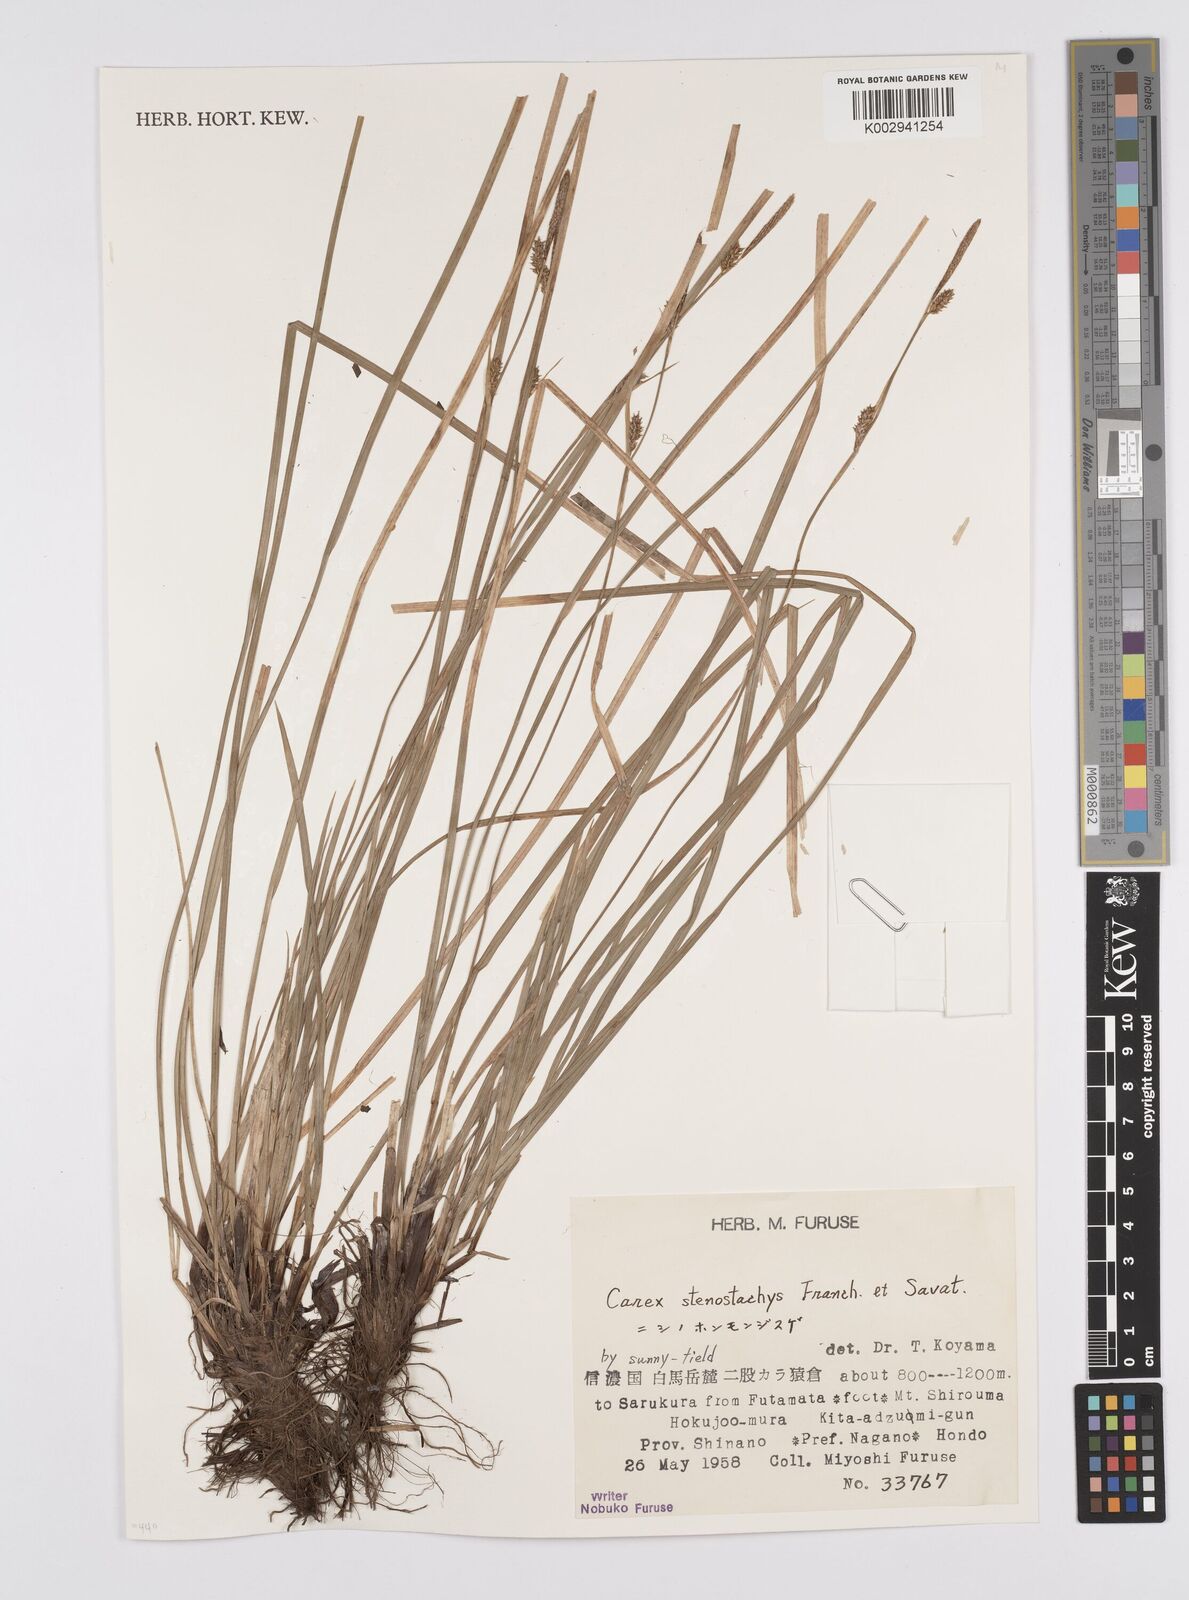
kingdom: Plantae
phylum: Tracheophyta
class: Liliopsida
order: Poales
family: Cyperaceae
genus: Carex
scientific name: Carex pisiformis
